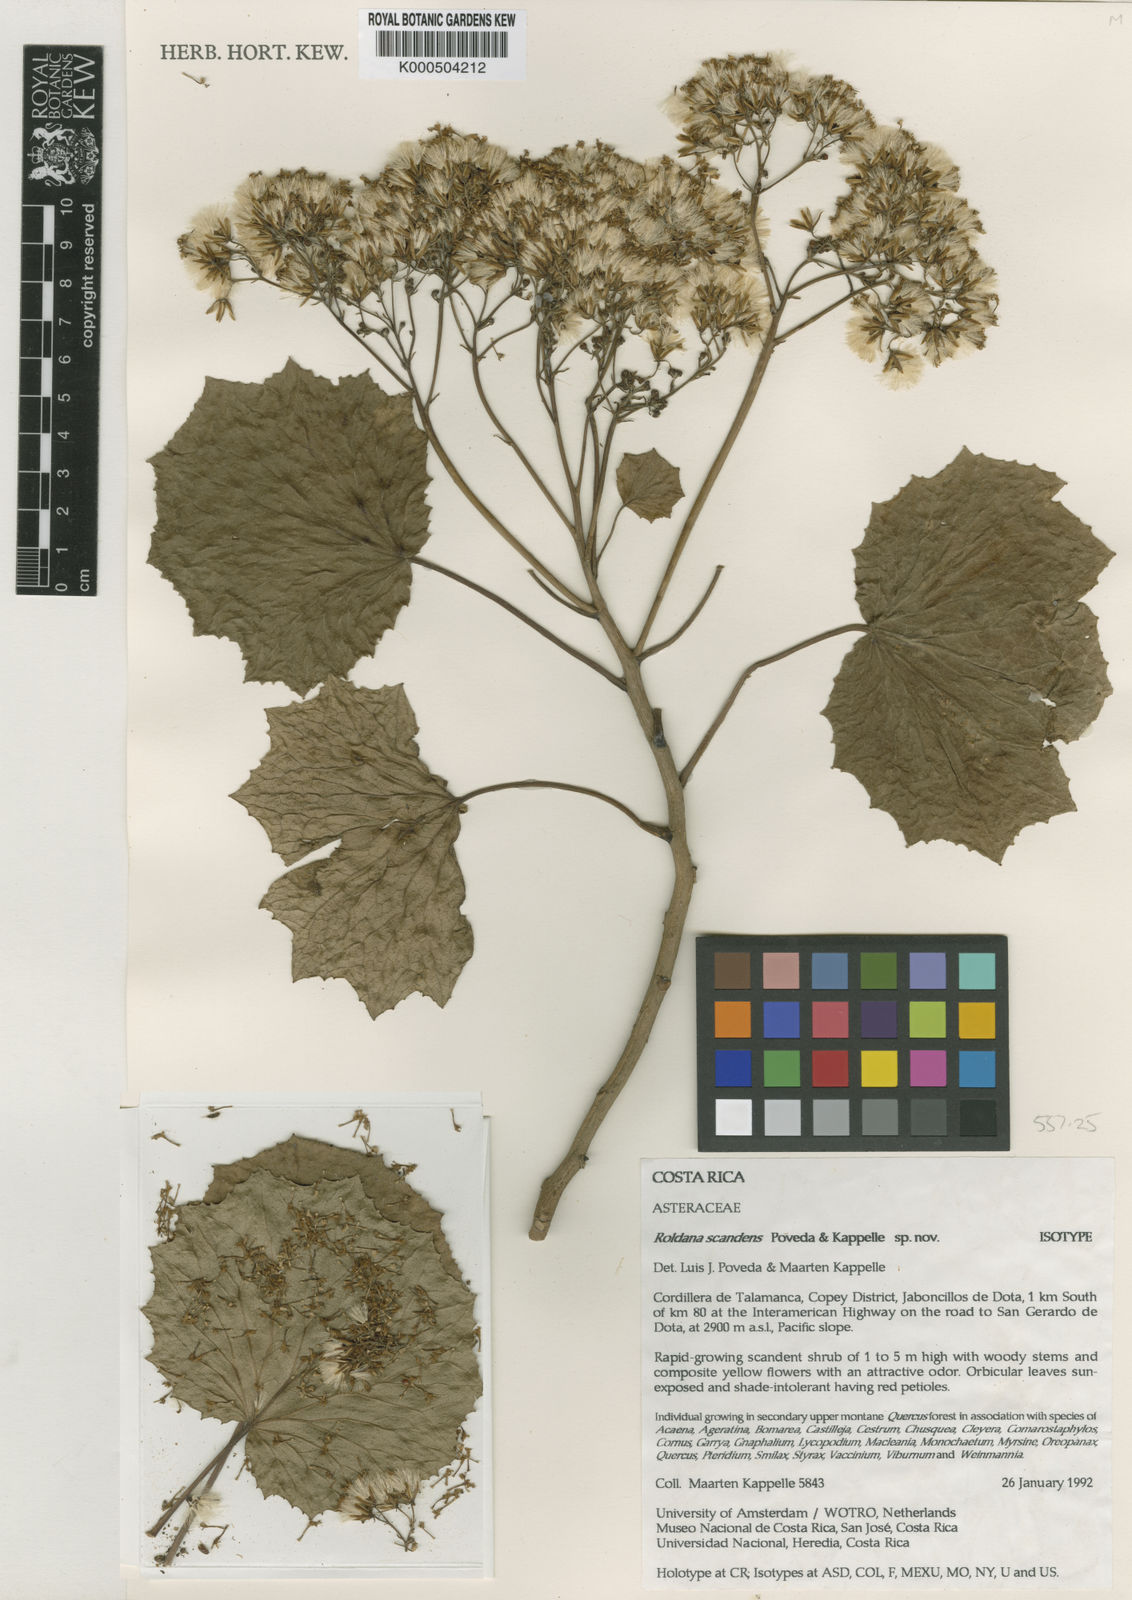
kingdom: Plantae
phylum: Tracheophyta
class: Magnoliopsida
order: Asterales
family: Asteraceae
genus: Roldana
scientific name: Roldana scandens
